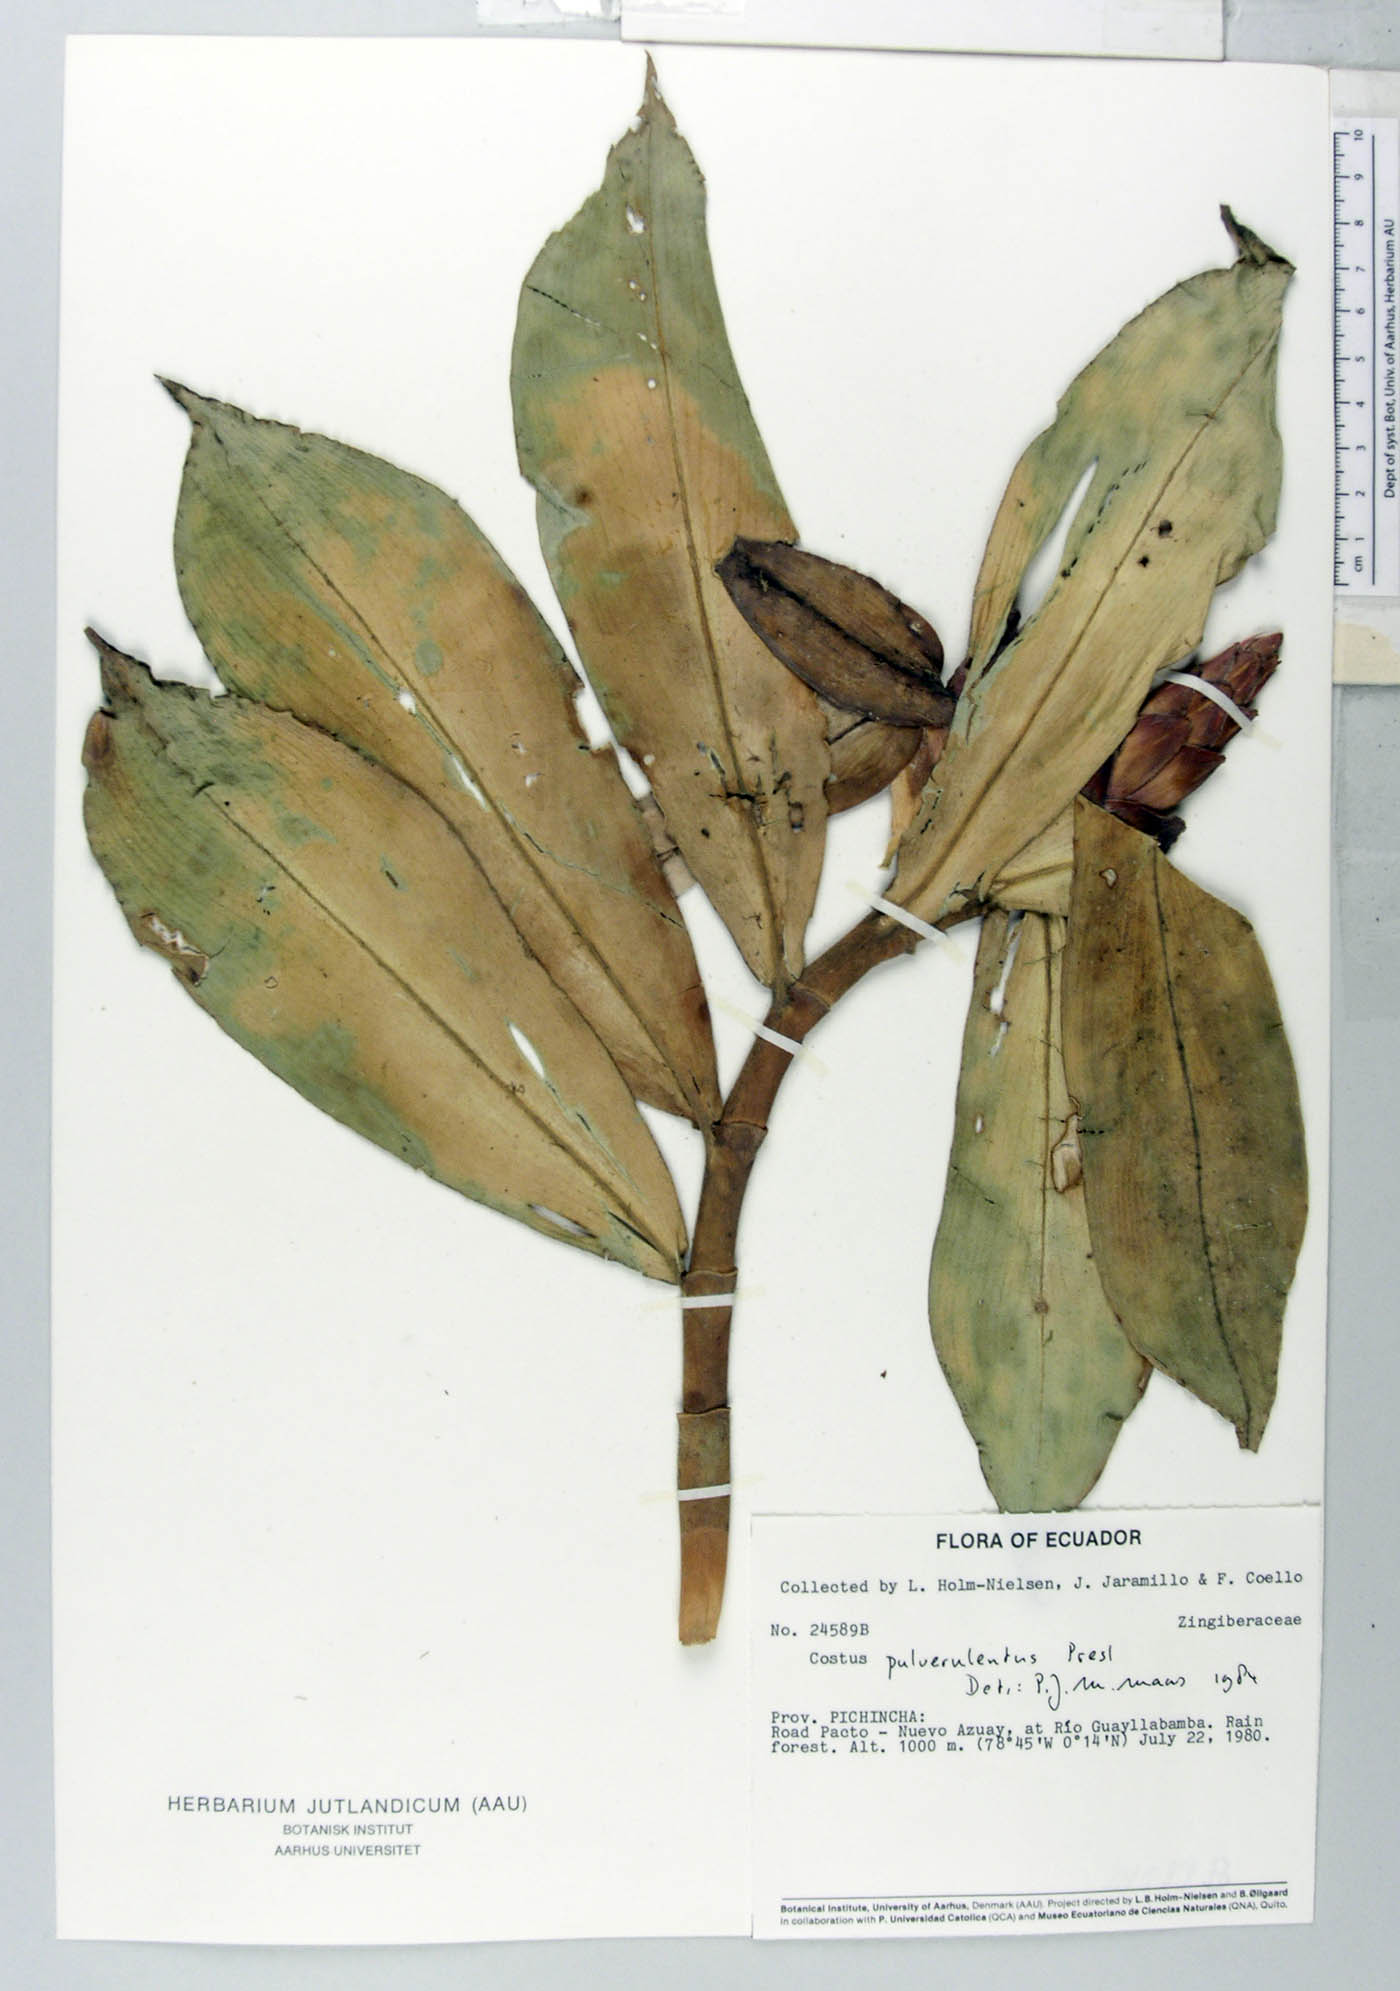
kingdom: Plantae
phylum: Tracheophyta
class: Liliopsida
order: Zingiberales
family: Costaceae
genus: Costus
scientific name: Costus pulverulentus
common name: Spiral ginger
